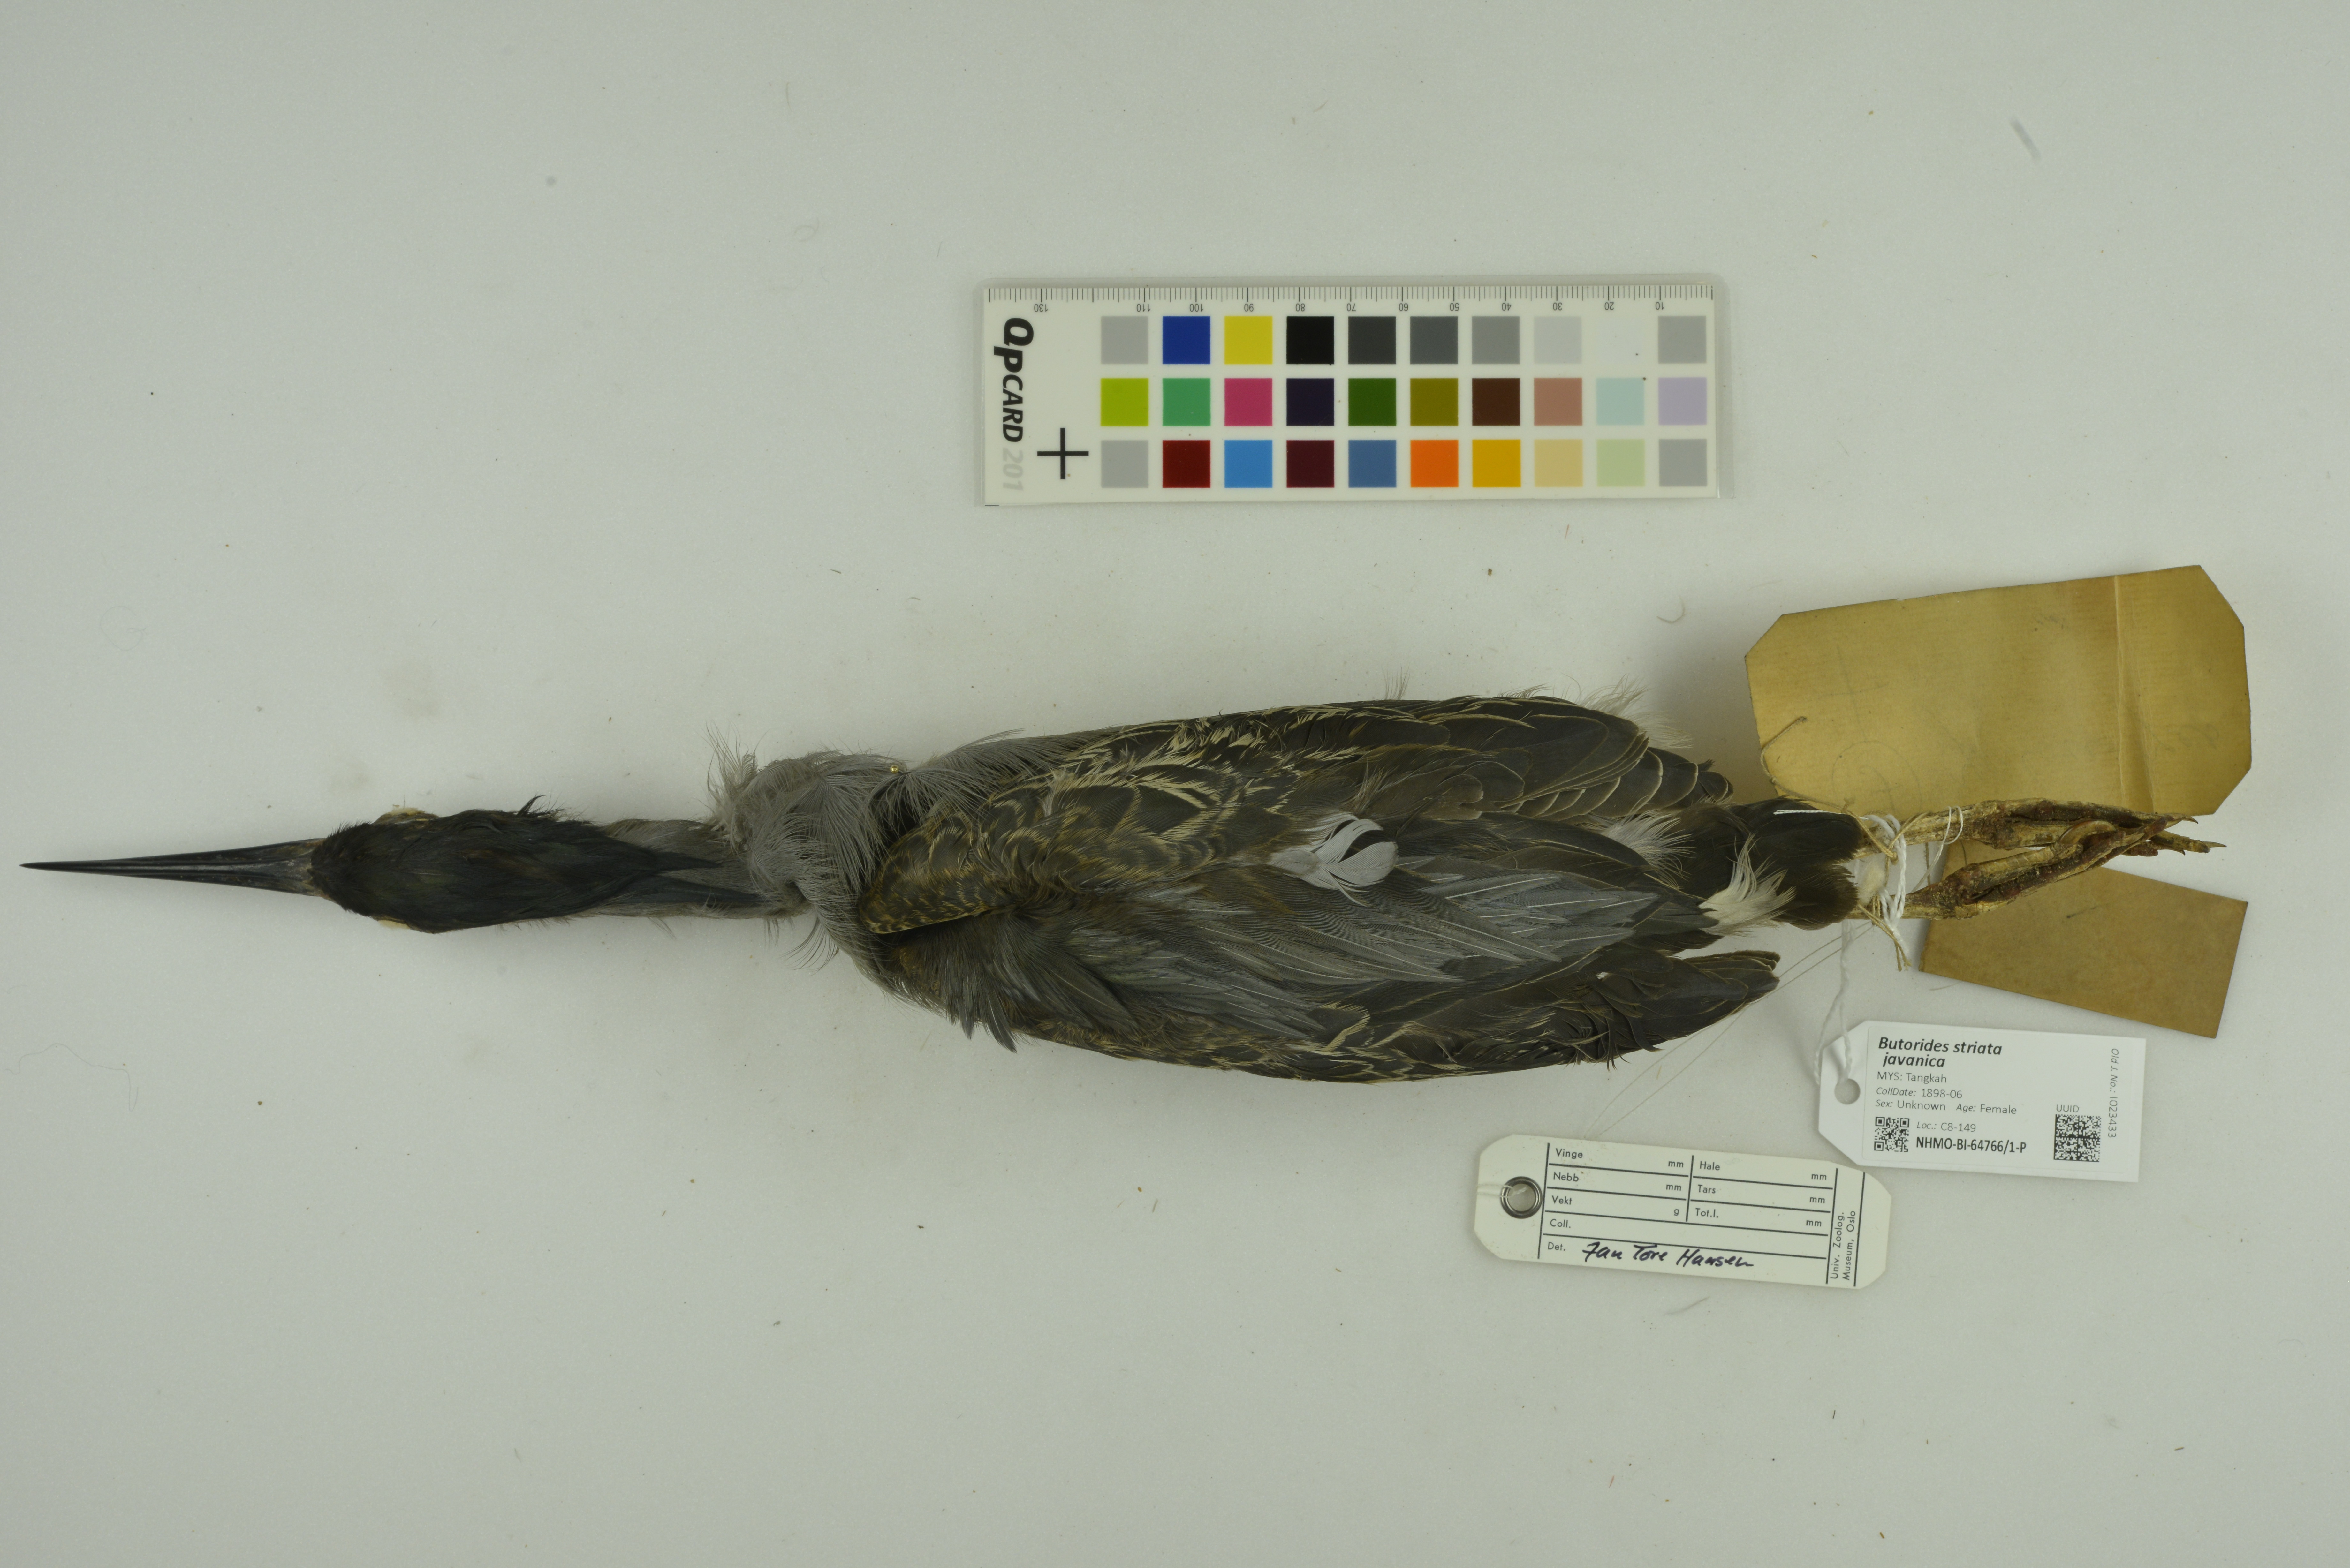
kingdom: Animalia
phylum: Chordata
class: Aves
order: Pelecaniformes
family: Ardeidae
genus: Butorides
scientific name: Butorides striata
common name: Striated heron
